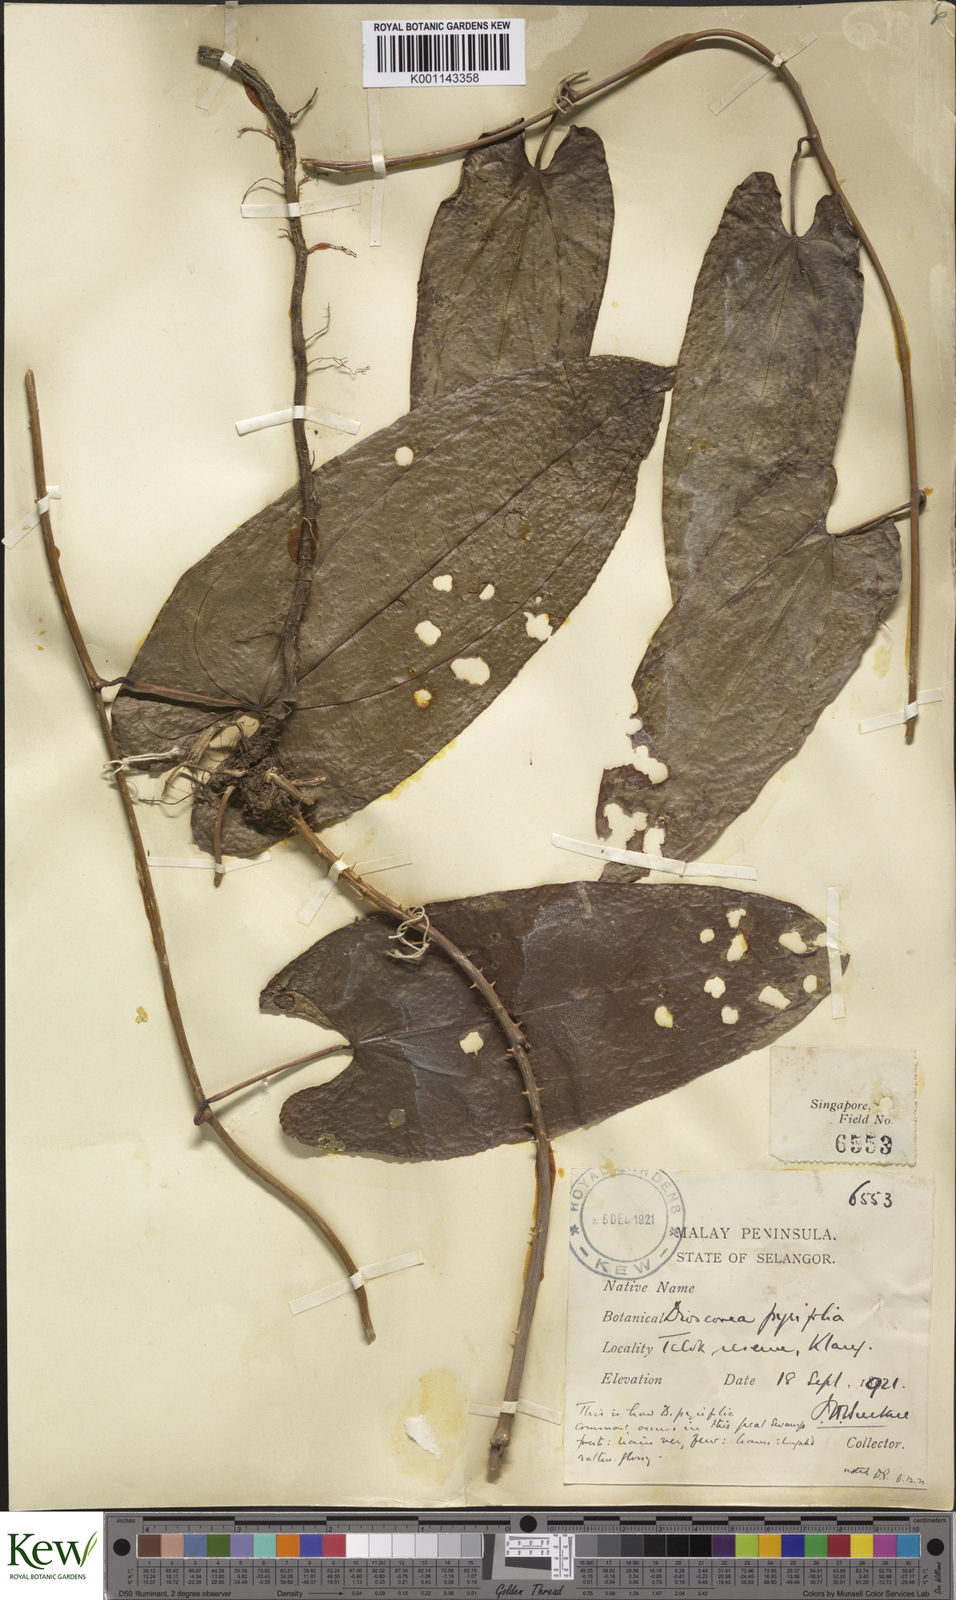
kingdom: Plantae
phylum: Tracheophyta
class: Liliopsida
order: Dioscoreales
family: Dioscoreaceae
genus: Dioscorea
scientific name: Dioscorea pyrifolia
